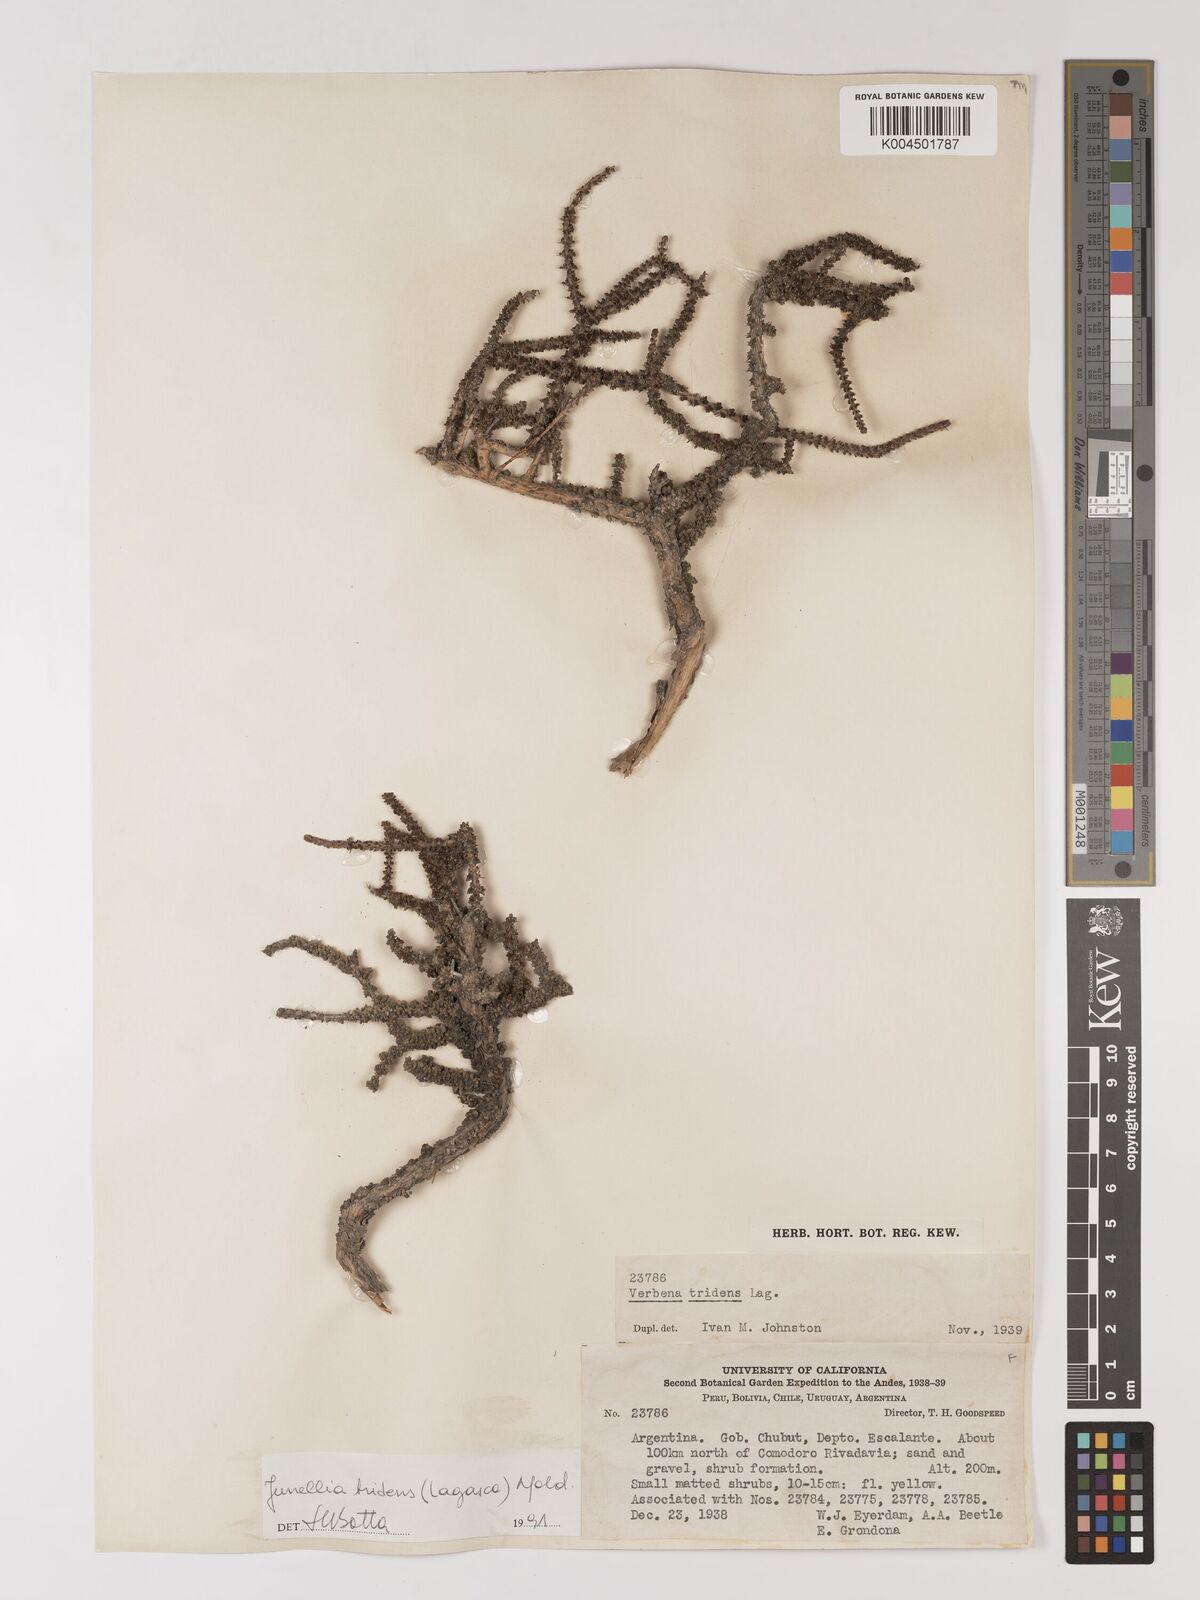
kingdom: Plantae
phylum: Tracheophyta
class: Magnoliopsida
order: Lamiales
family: Verbenaceae
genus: Mulguraea
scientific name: Mulguraea tridens
